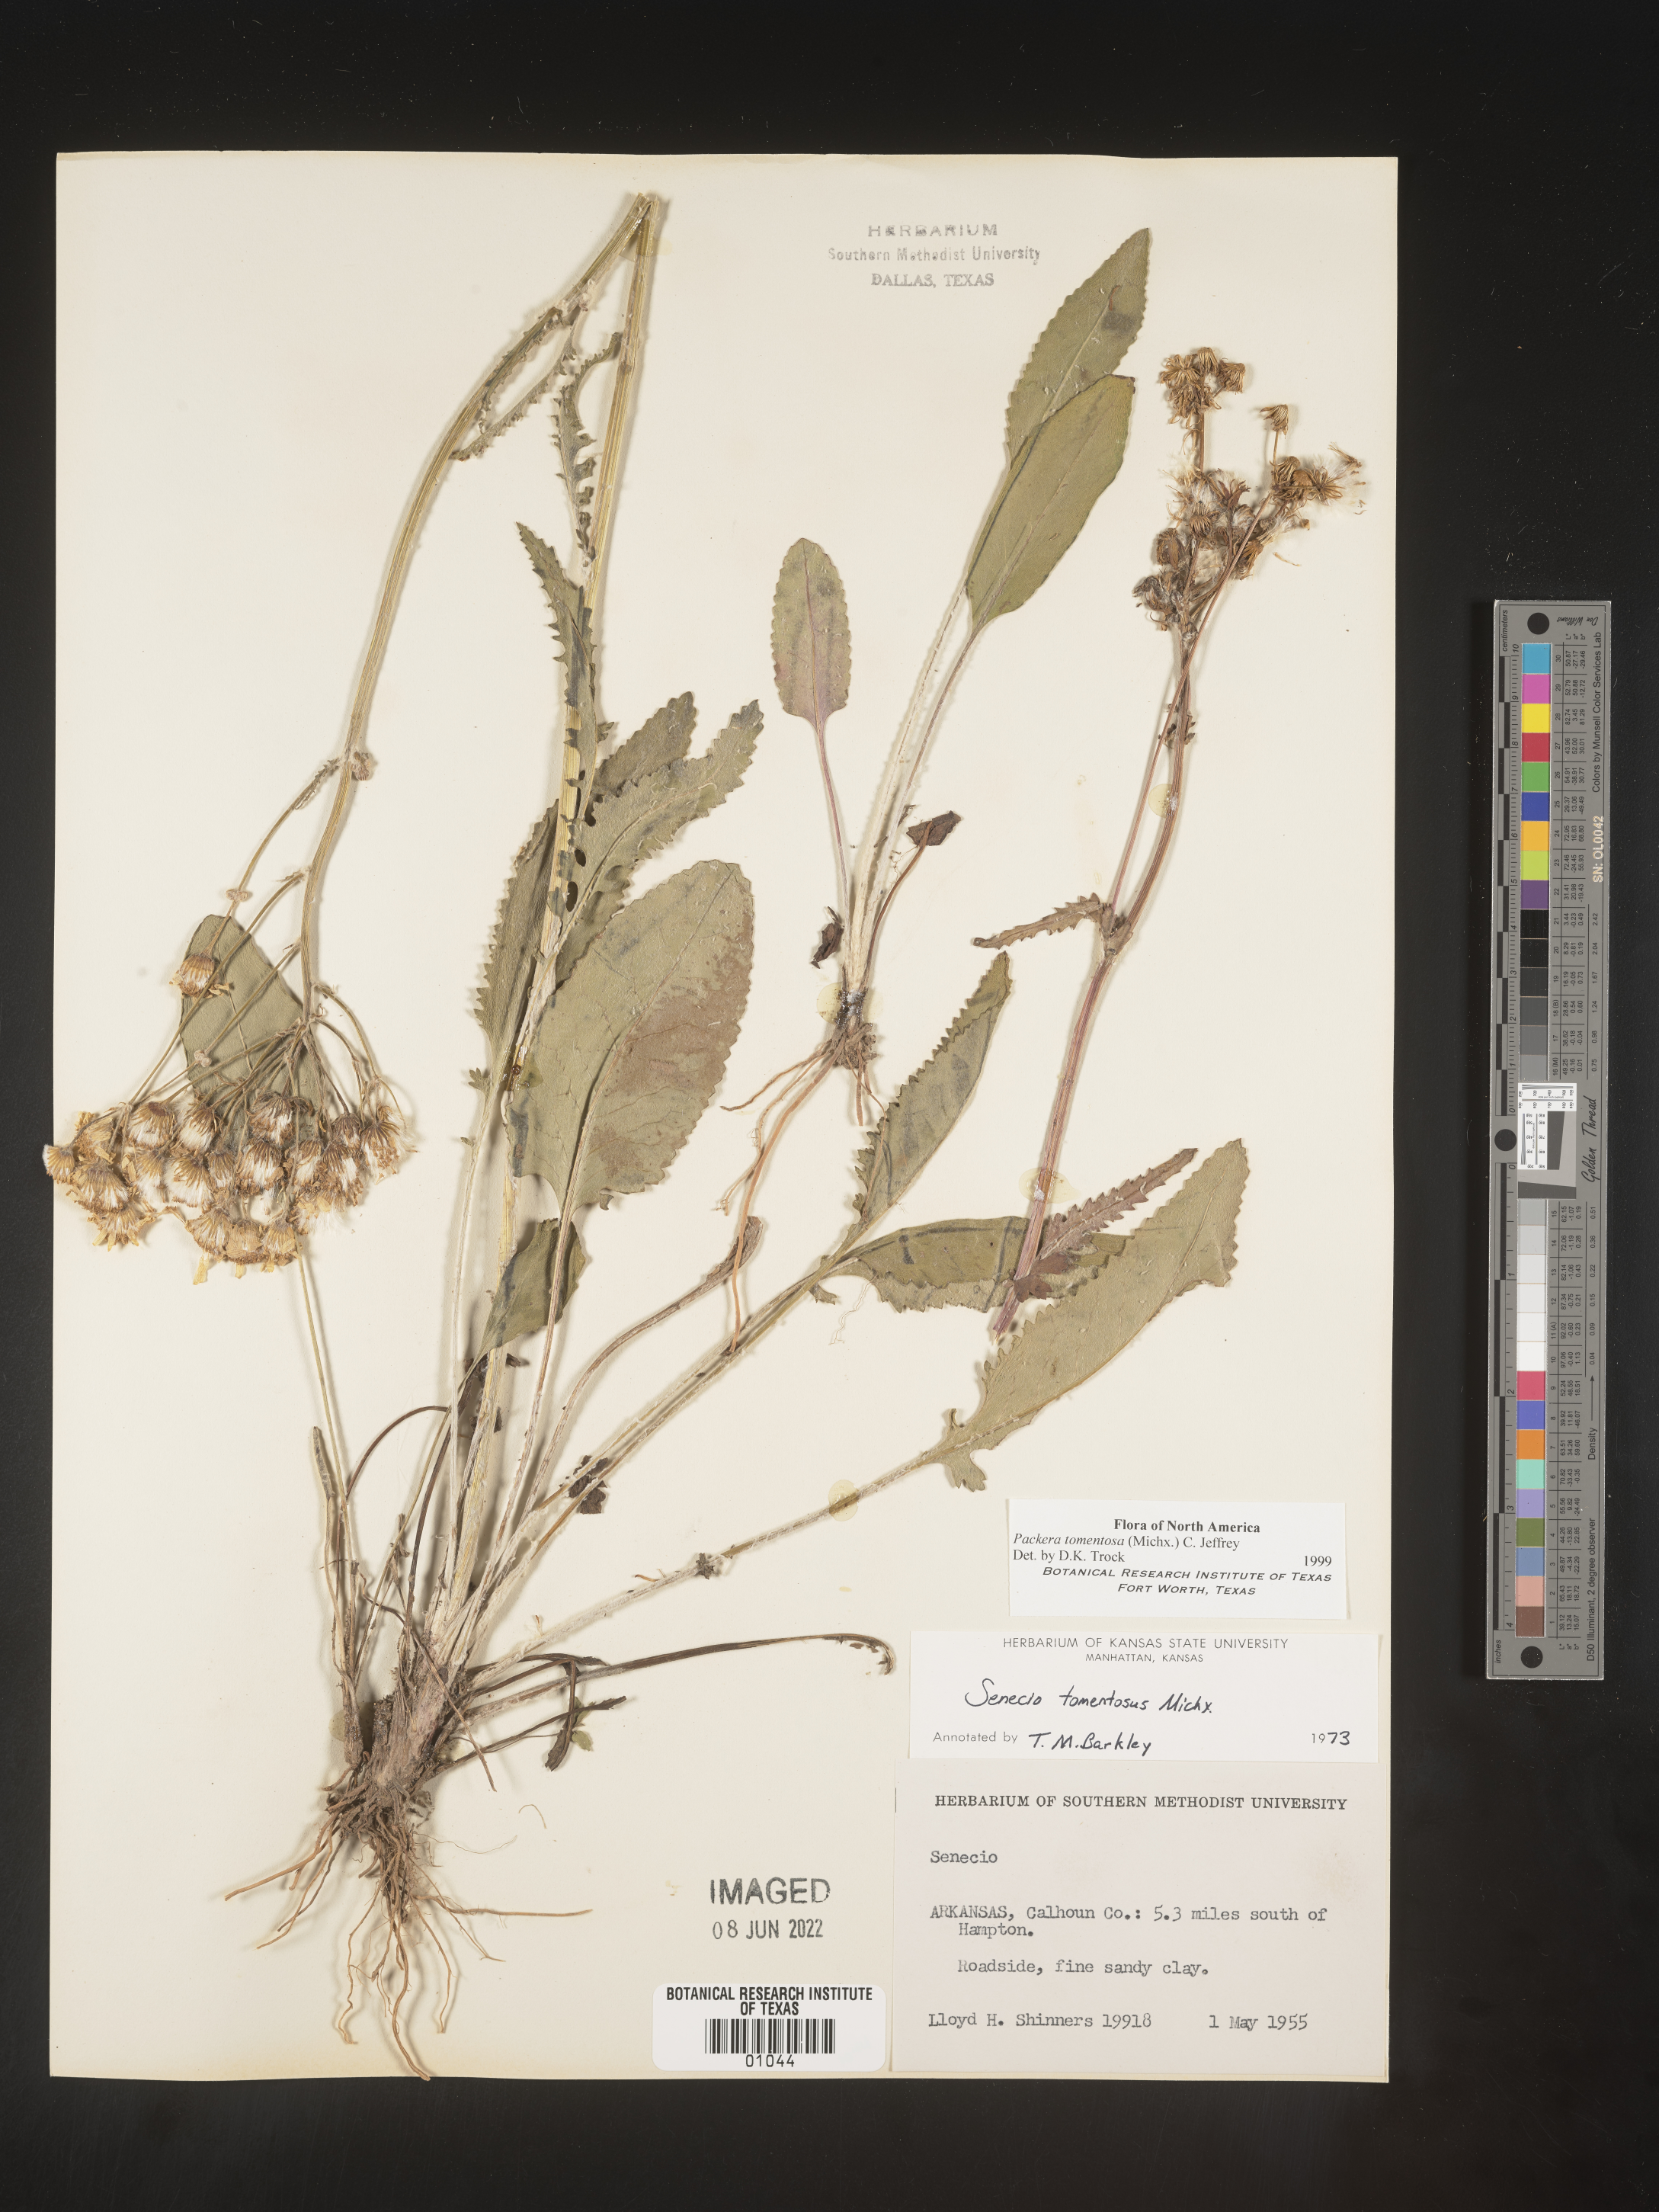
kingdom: Plantae
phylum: Tracheophyta
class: Magnoliopsida
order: Asterales
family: Asteraceae
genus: Packera
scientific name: Packera dubia
